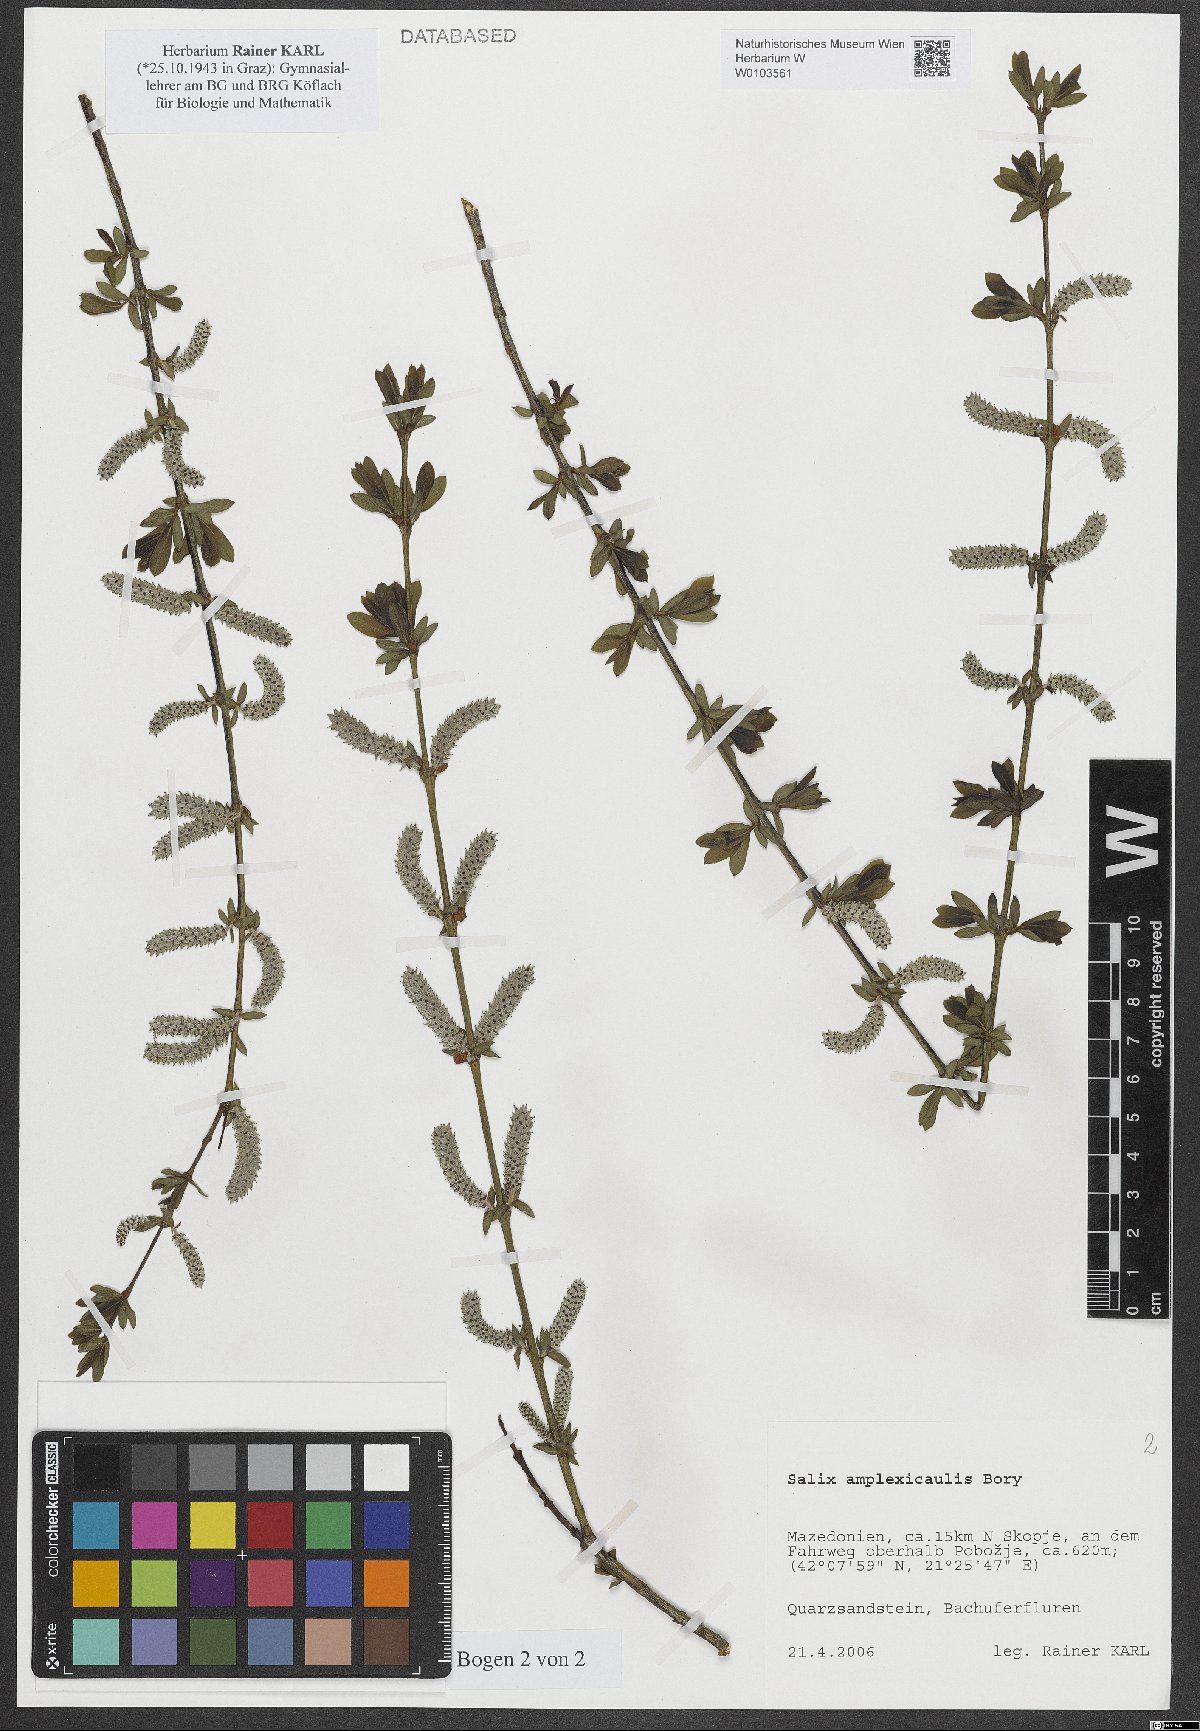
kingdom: Plantae
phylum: Tracheophyta
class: Magnoliopsida
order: Malpighiales
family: Salicaceae
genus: Salix
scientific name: Salix amplexicaulis
